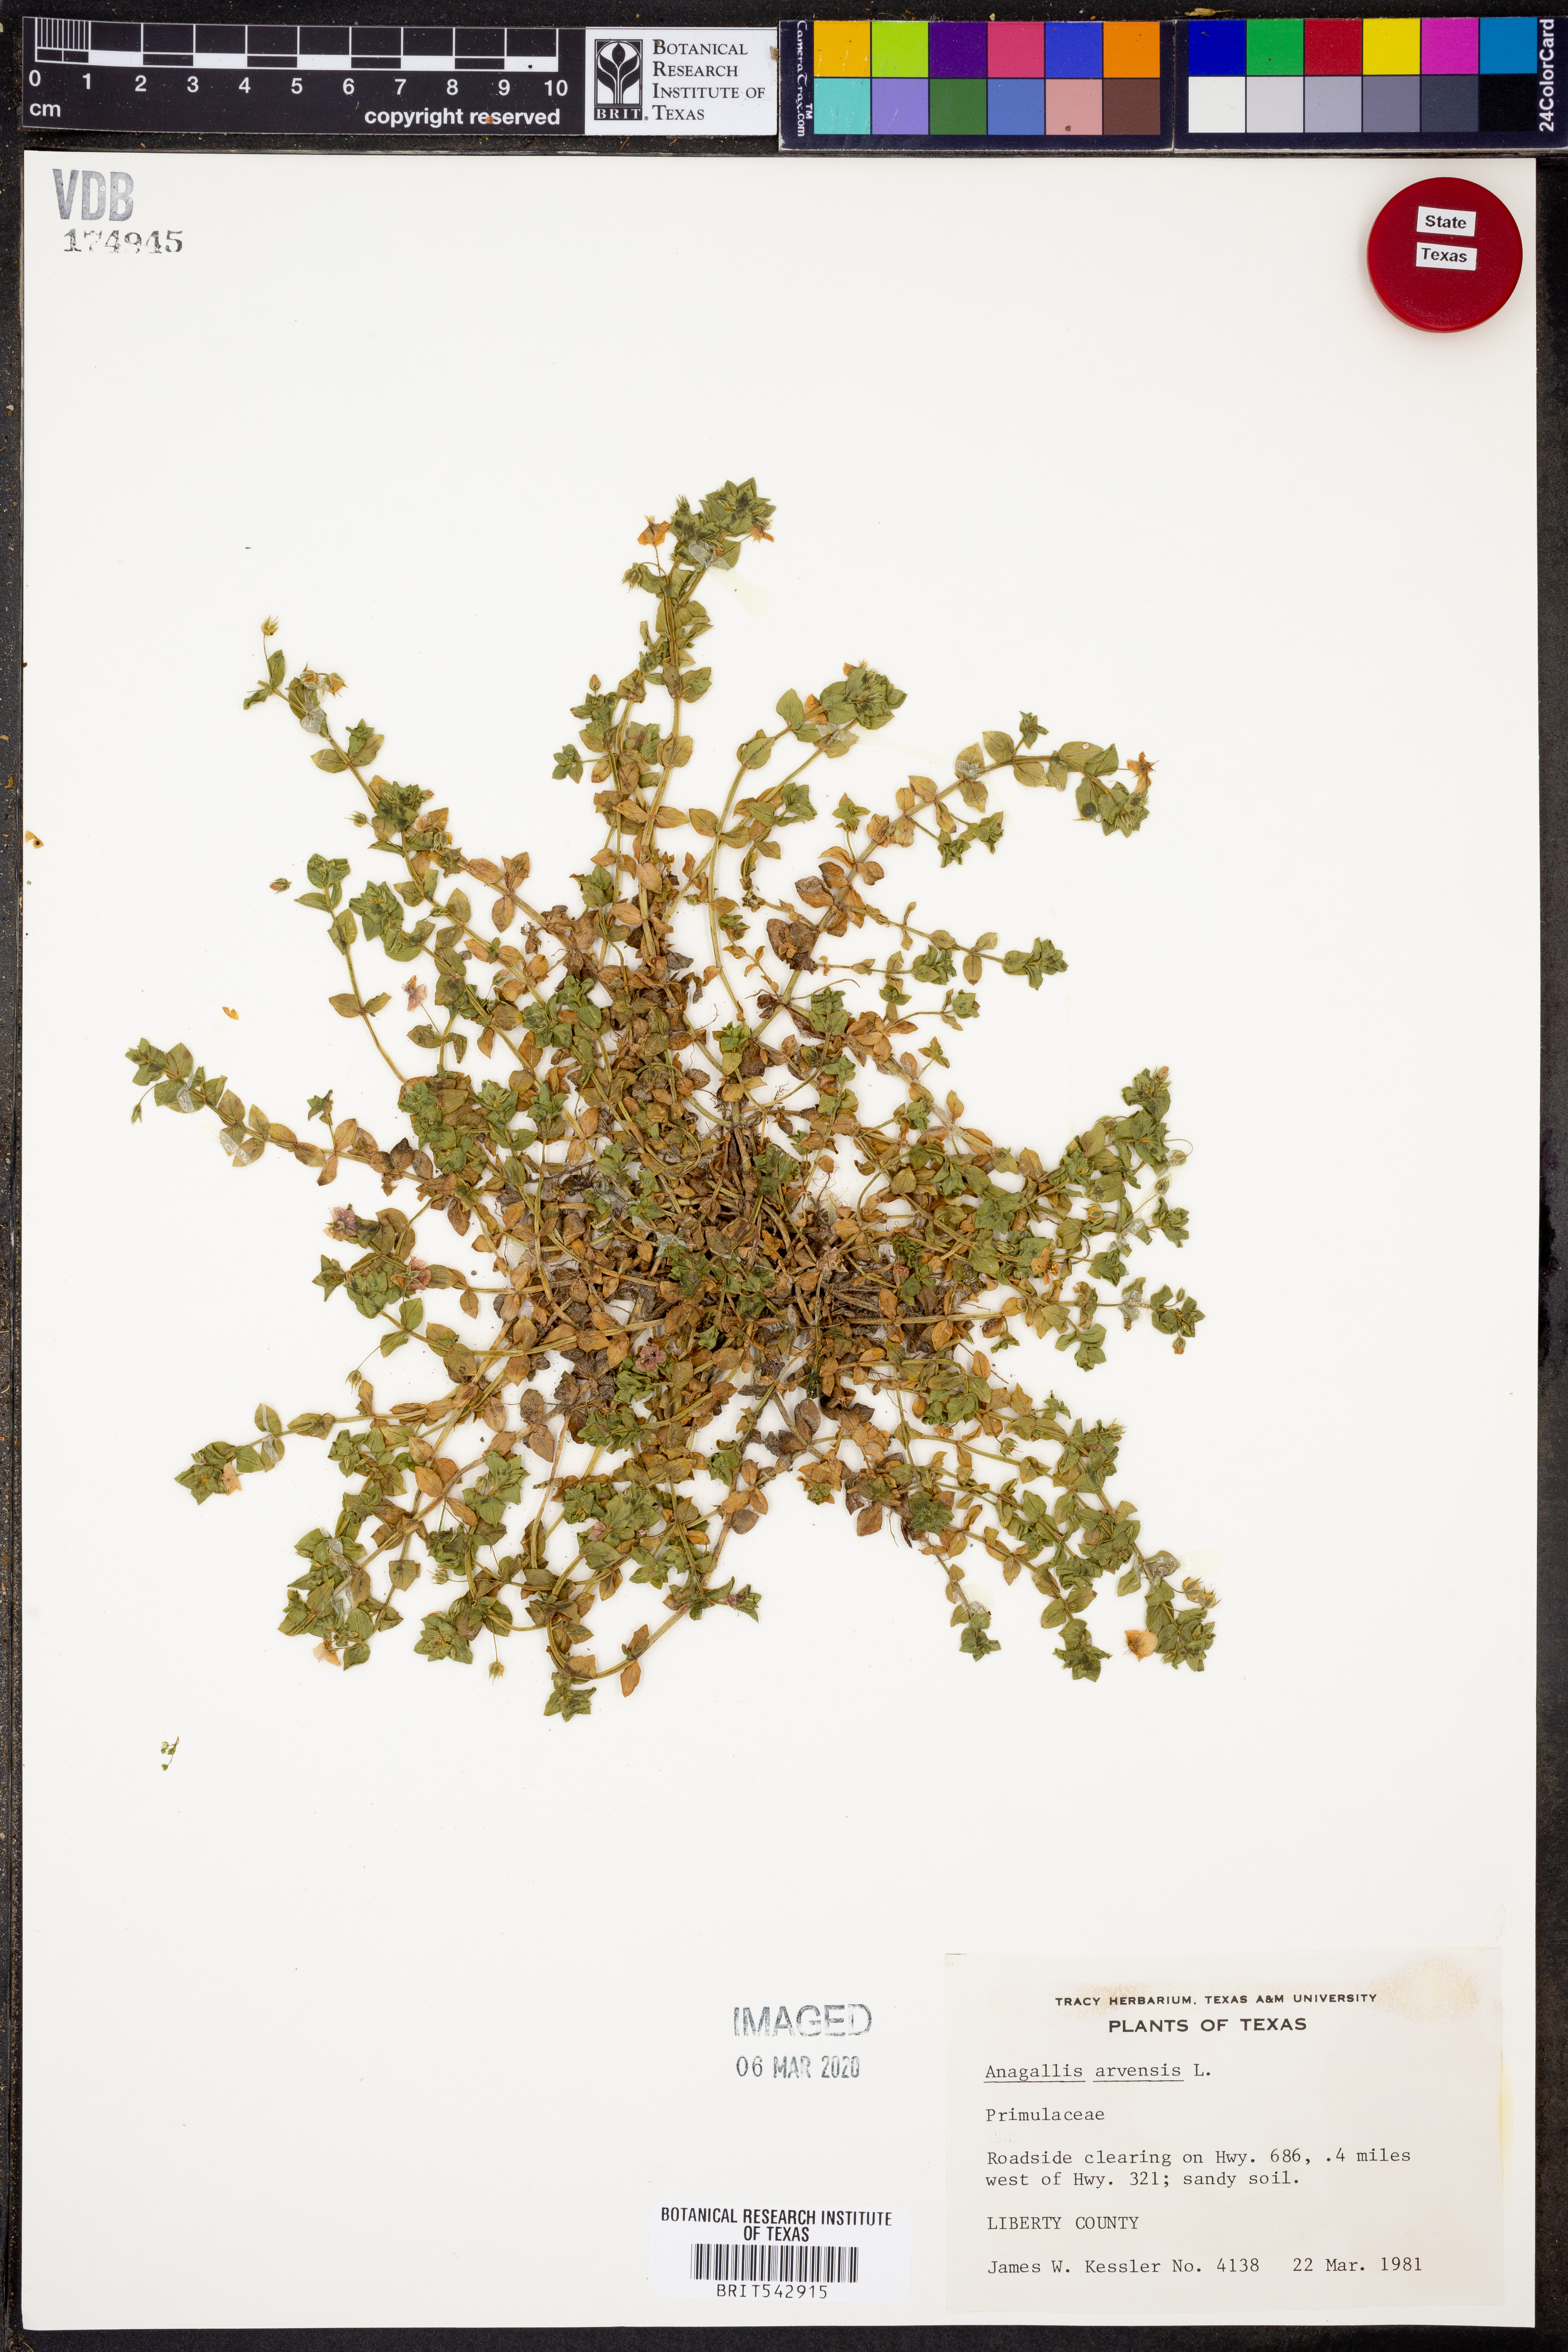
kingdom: Plantae
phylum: Tracheophyta
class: Magnoliopsida
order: Ericales
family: Primulaceae
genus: Lysimachia
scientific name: Lysimachia arvensis
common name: Scarlet pimpernel
